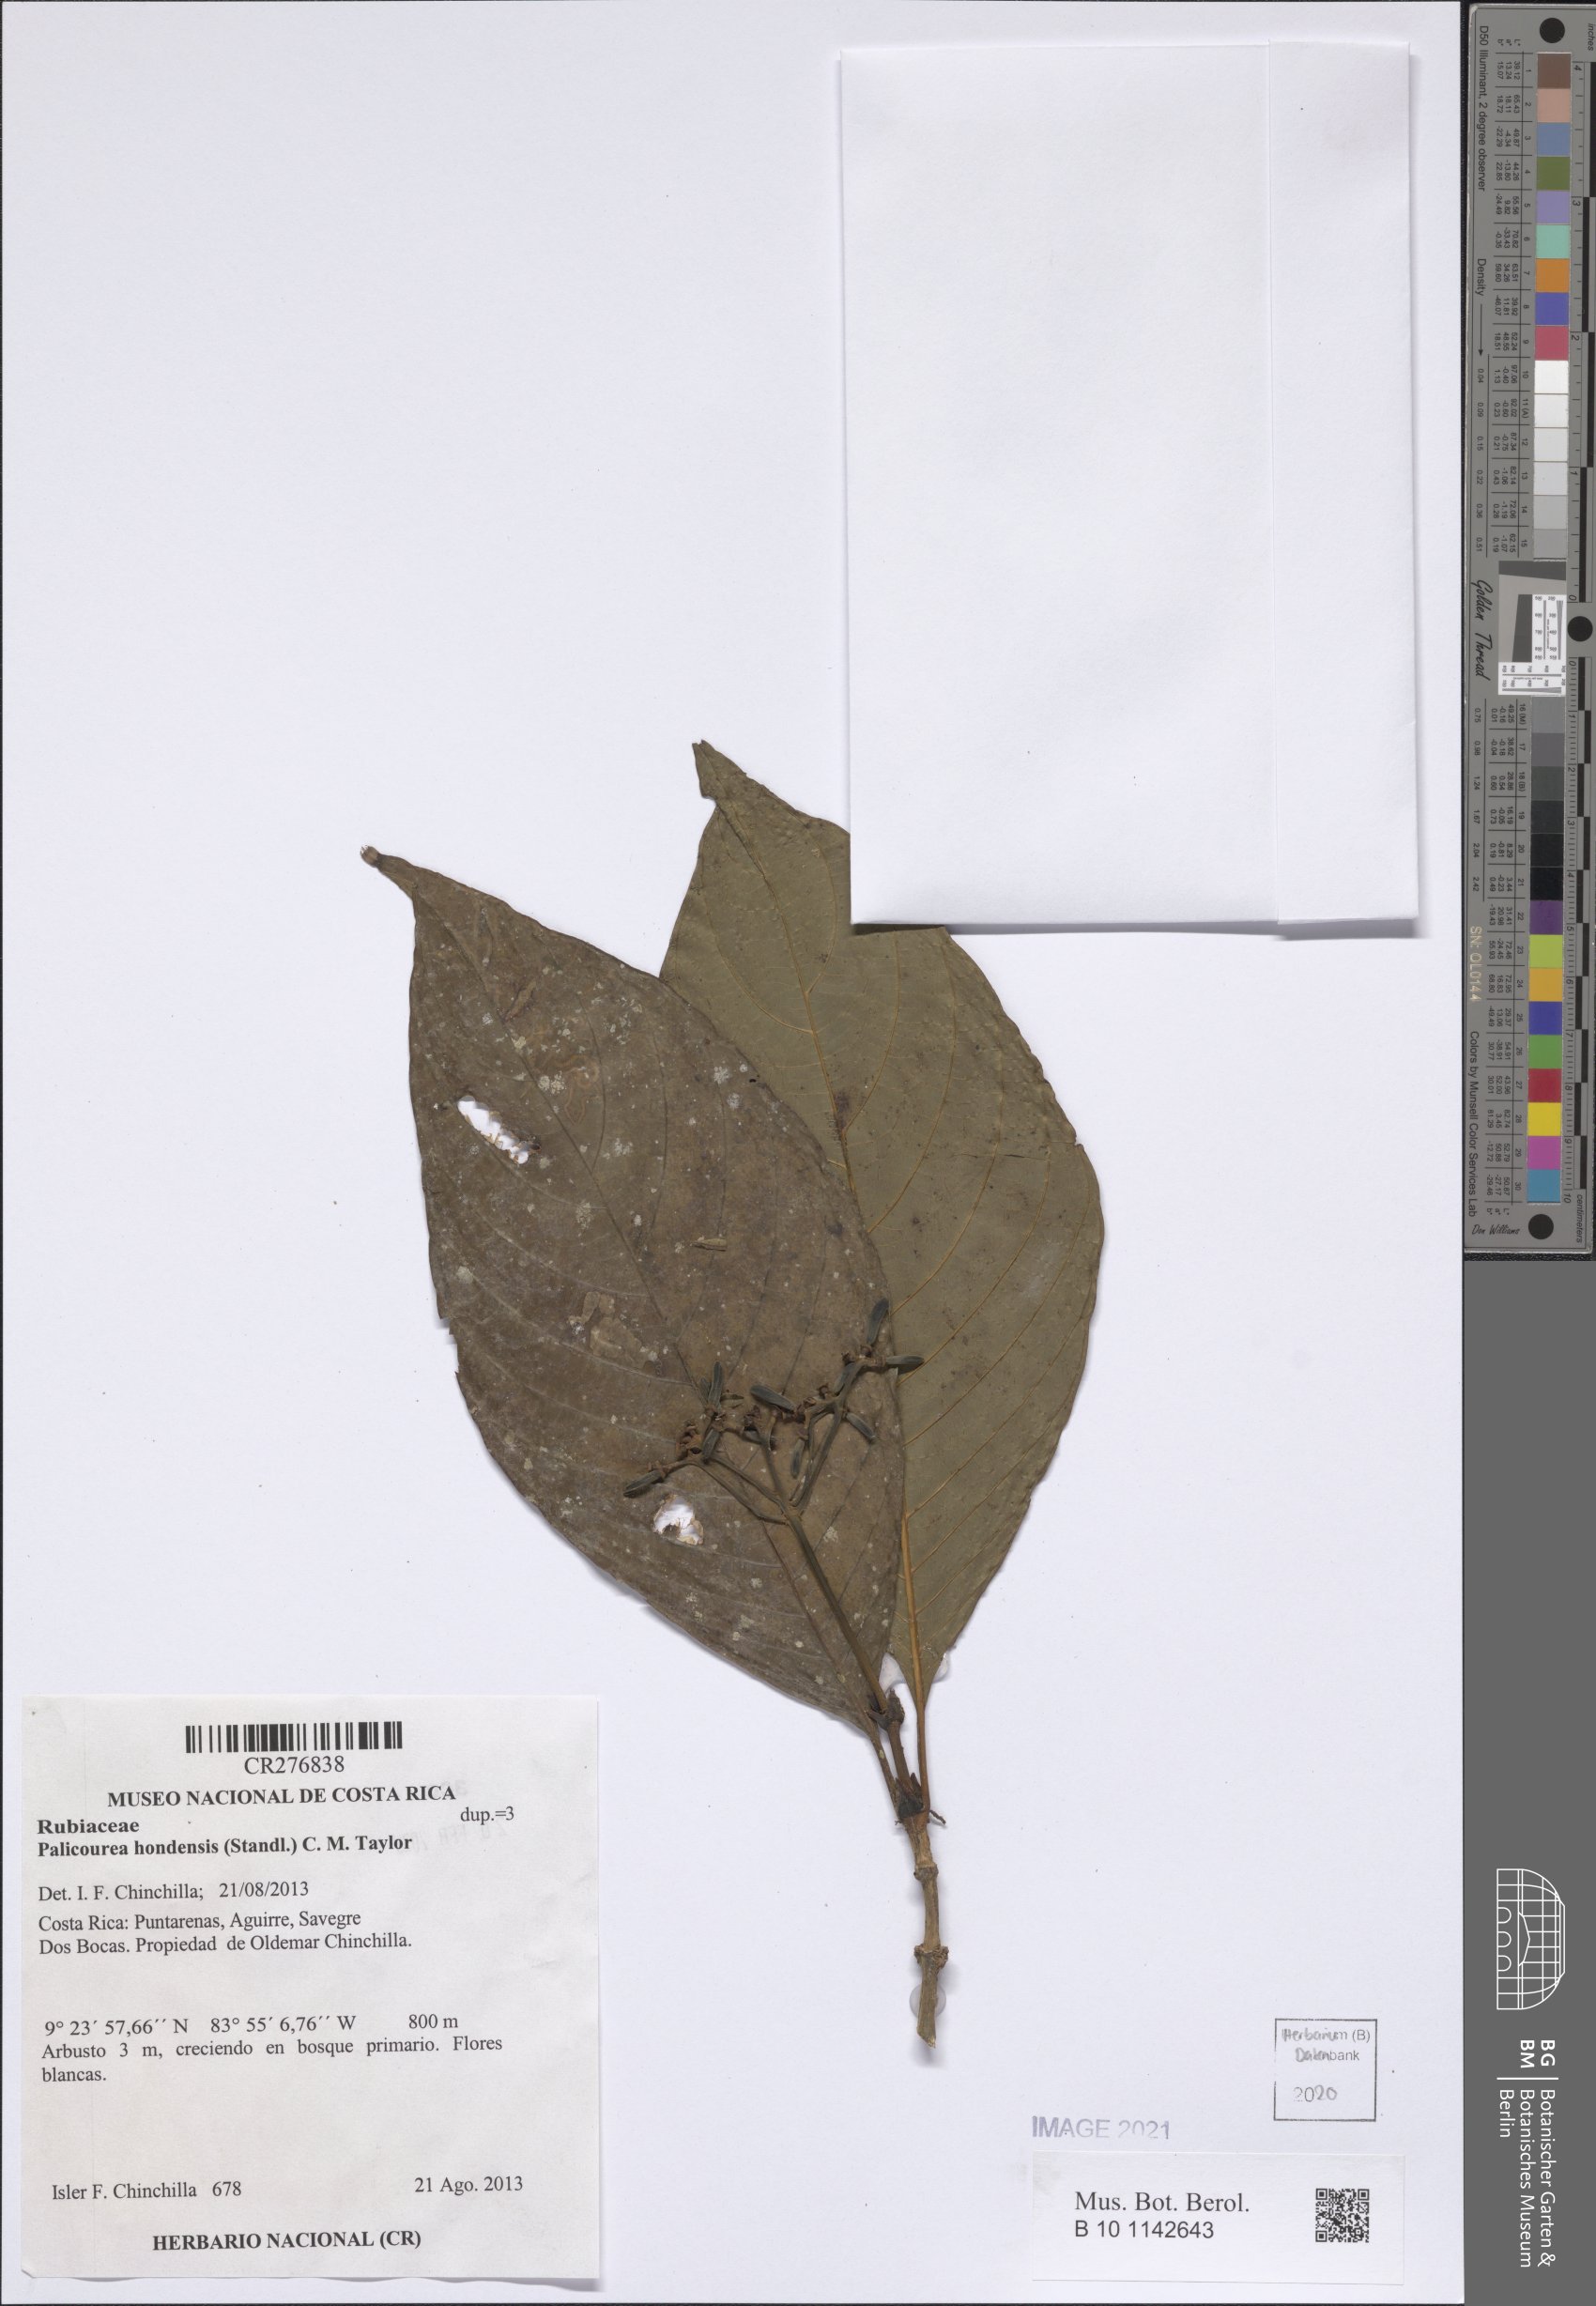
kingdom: Plantae
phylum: Tracheophyta
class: Magnoliopsida
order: Gentianales
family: Rubiaceae
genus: Palicourea
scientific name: Palicourea hondensis
